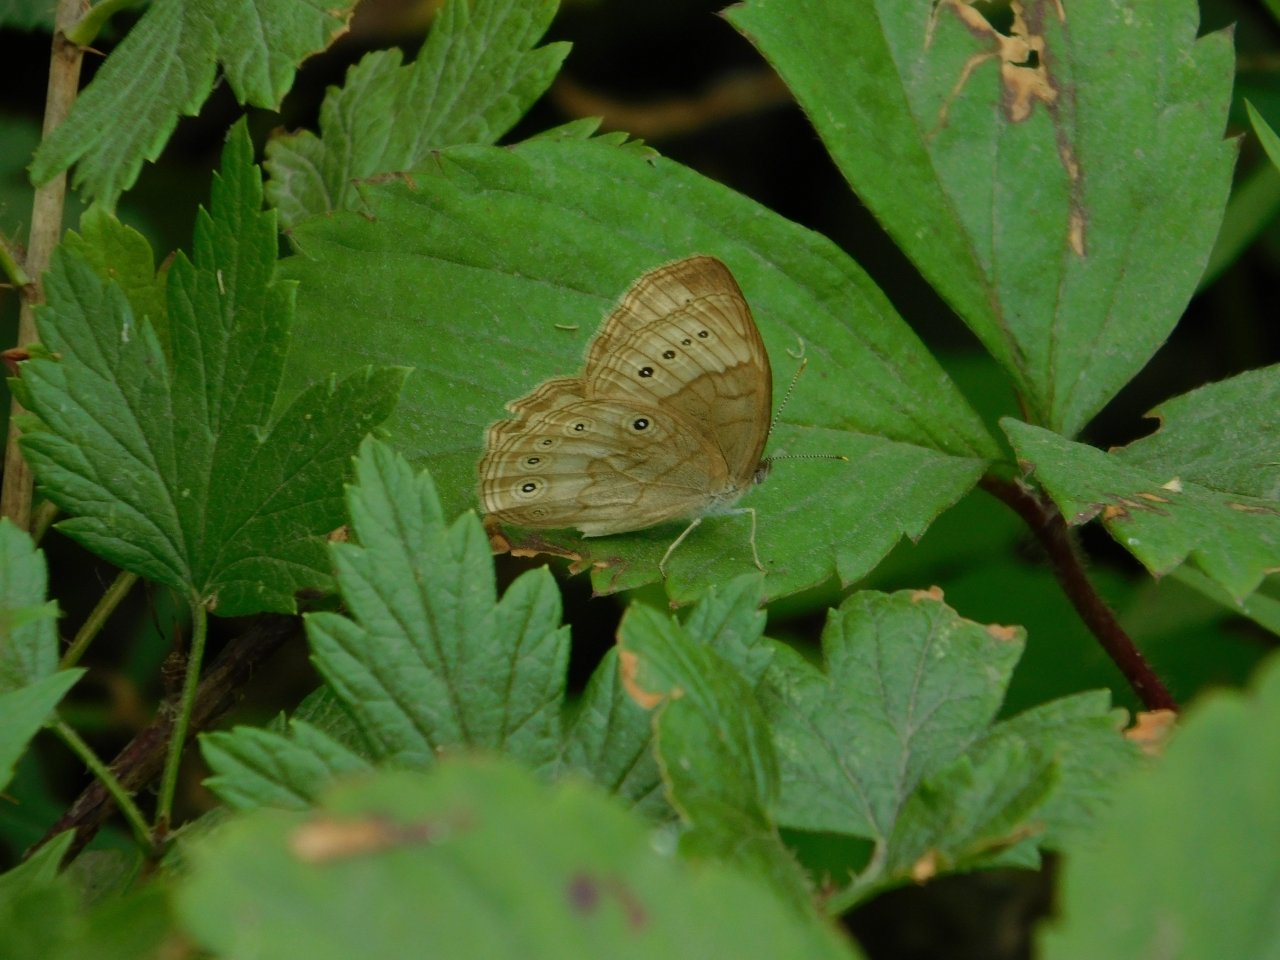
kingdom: Animalia
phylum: Arthropoda
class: Insecta
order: Lepidoptera
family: Nymphalidae
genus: Lethe
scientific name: Lethe eurydice
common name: Eyed Brown
